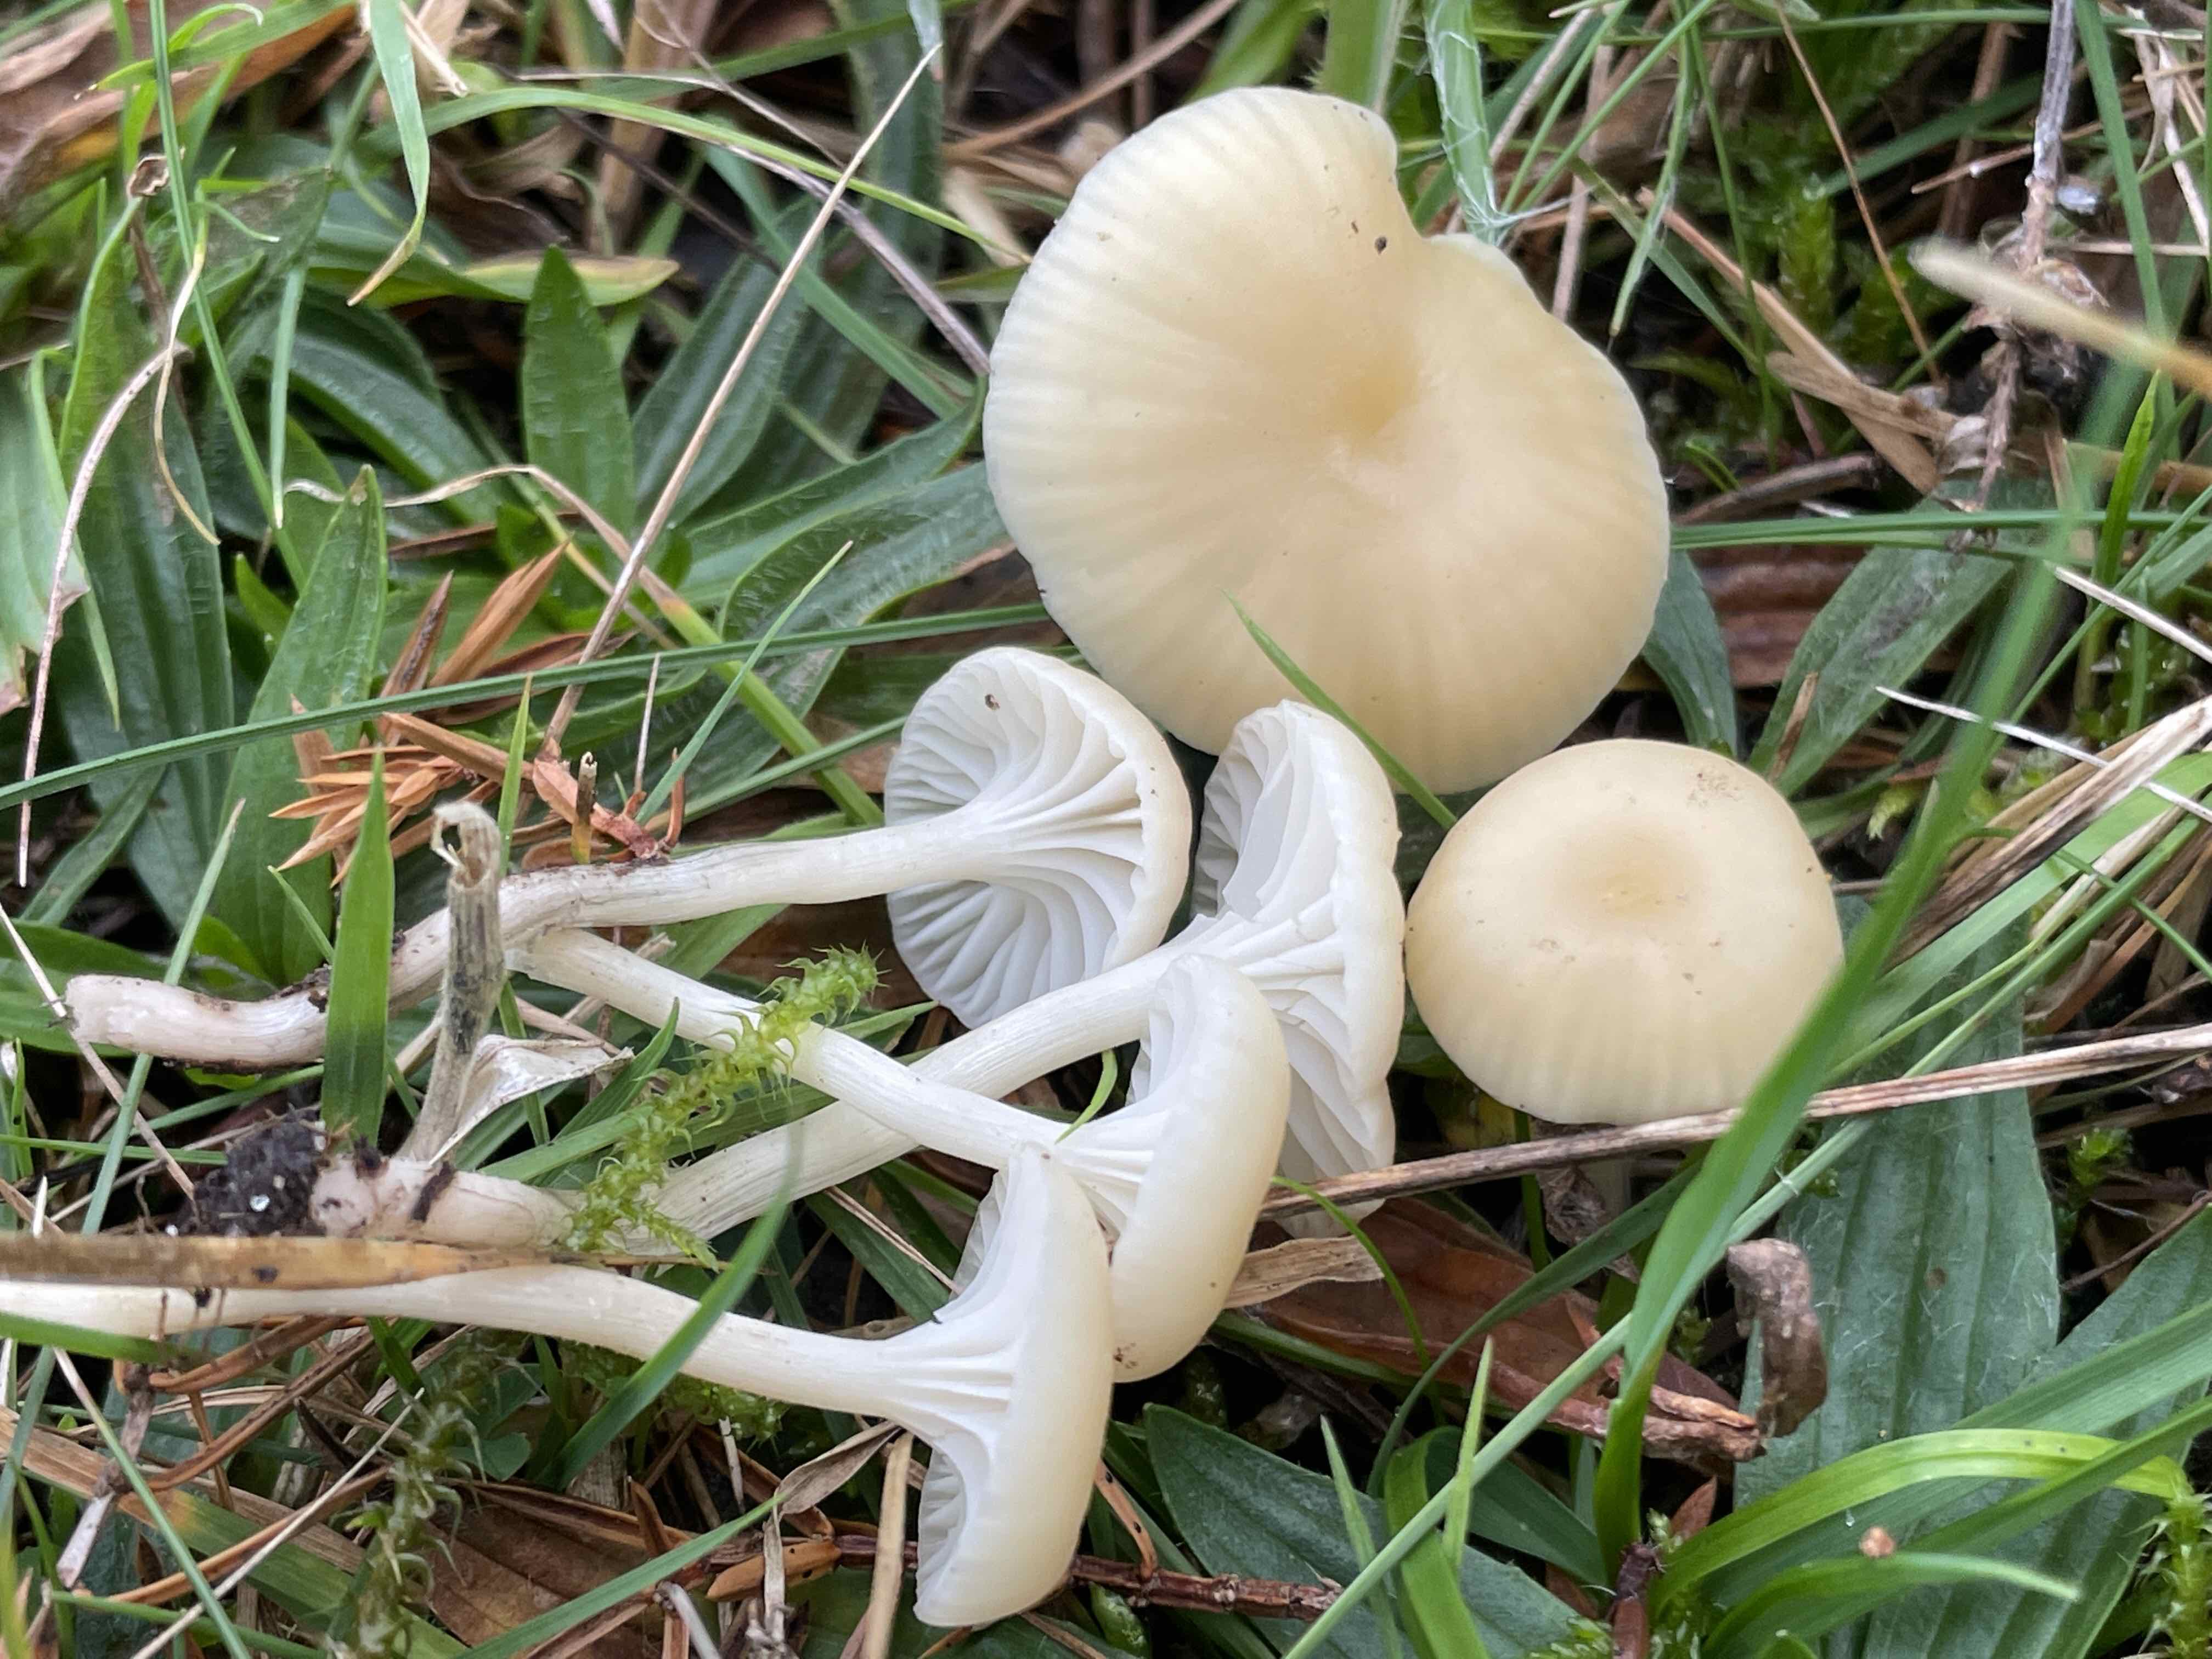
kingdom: Fungi
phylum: Basidiomycota
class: Agaricomycetes
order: Agaricales
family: Hygrophoraceae
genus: Cuphophyllus
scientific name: Cuphophyllus russocoriaceus
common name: ruslæder-vokshat
